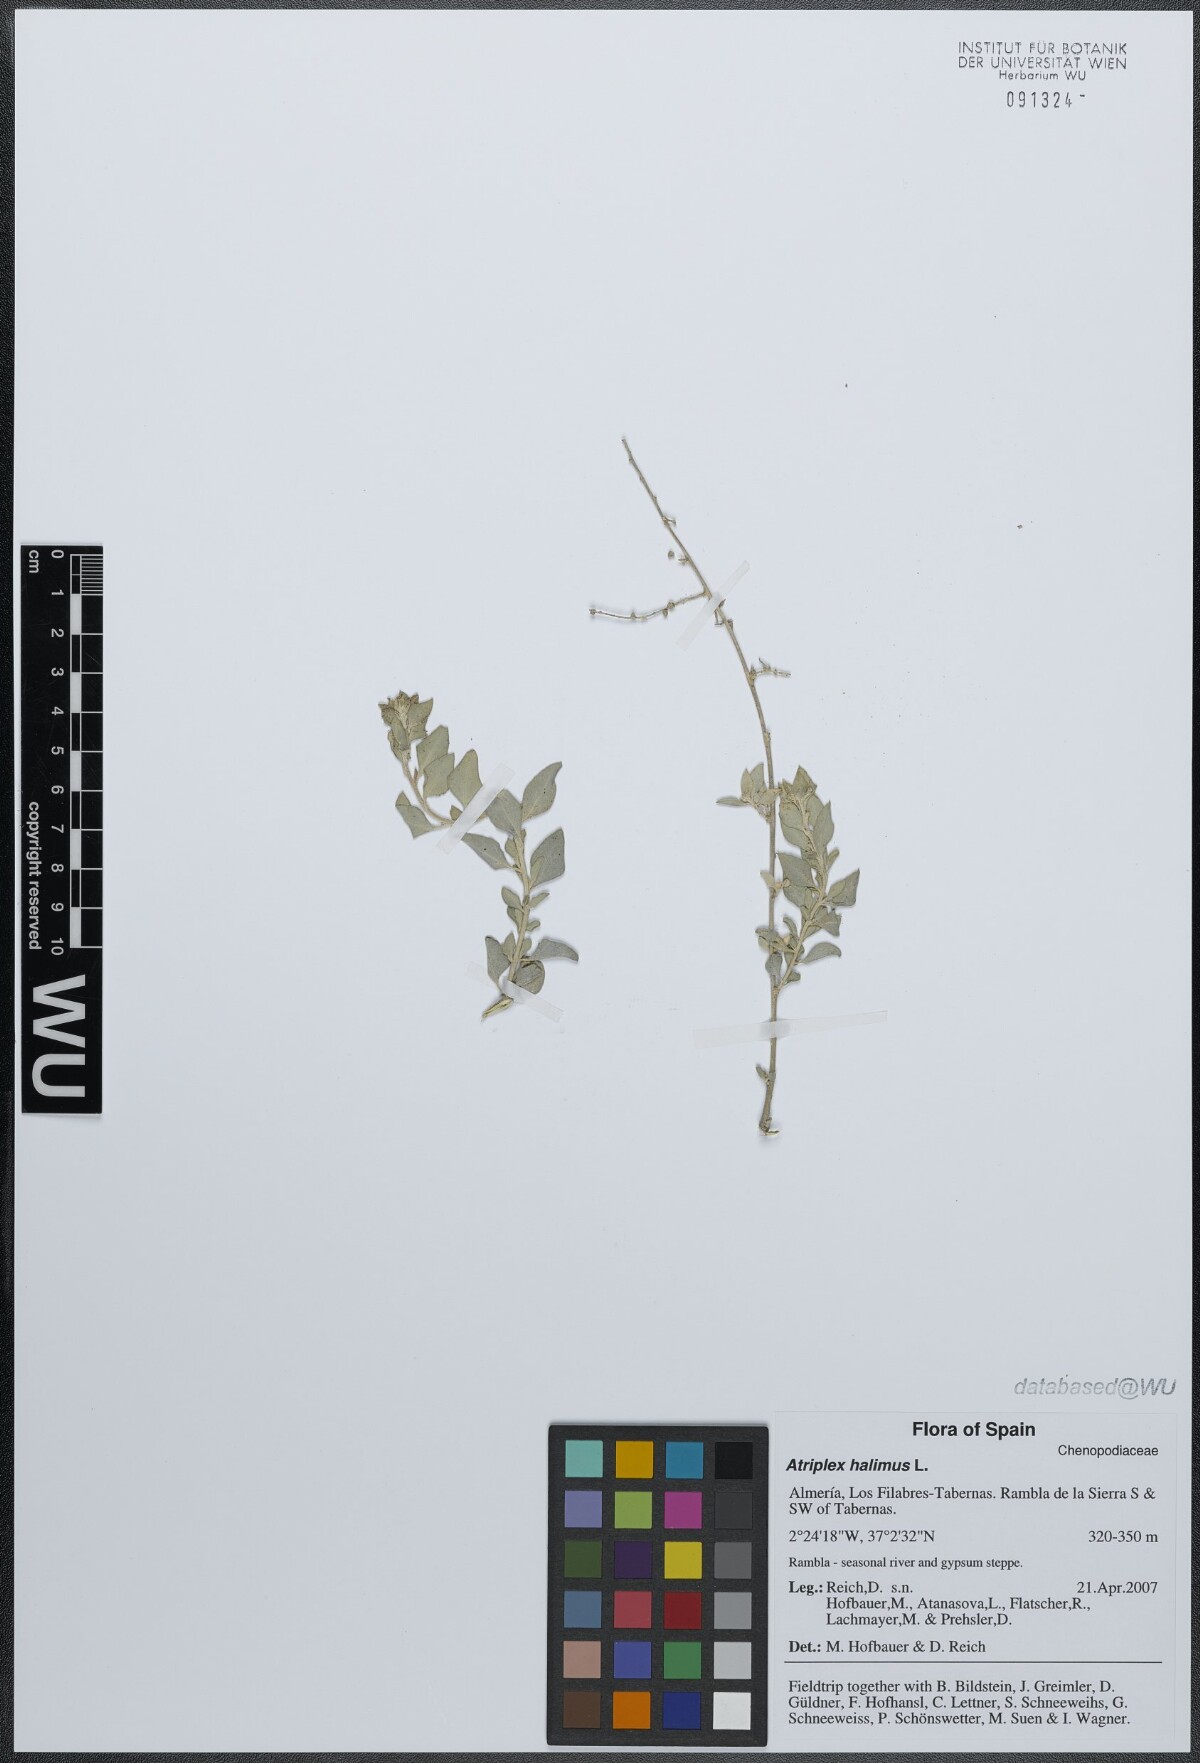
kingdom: Plantae
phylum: Tracheophyta
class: Magnoliopsida
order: Caryophyllales
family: Amaranthaceae
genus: Atriplex
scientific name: Atriplex halimus
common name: Shrubby orache
